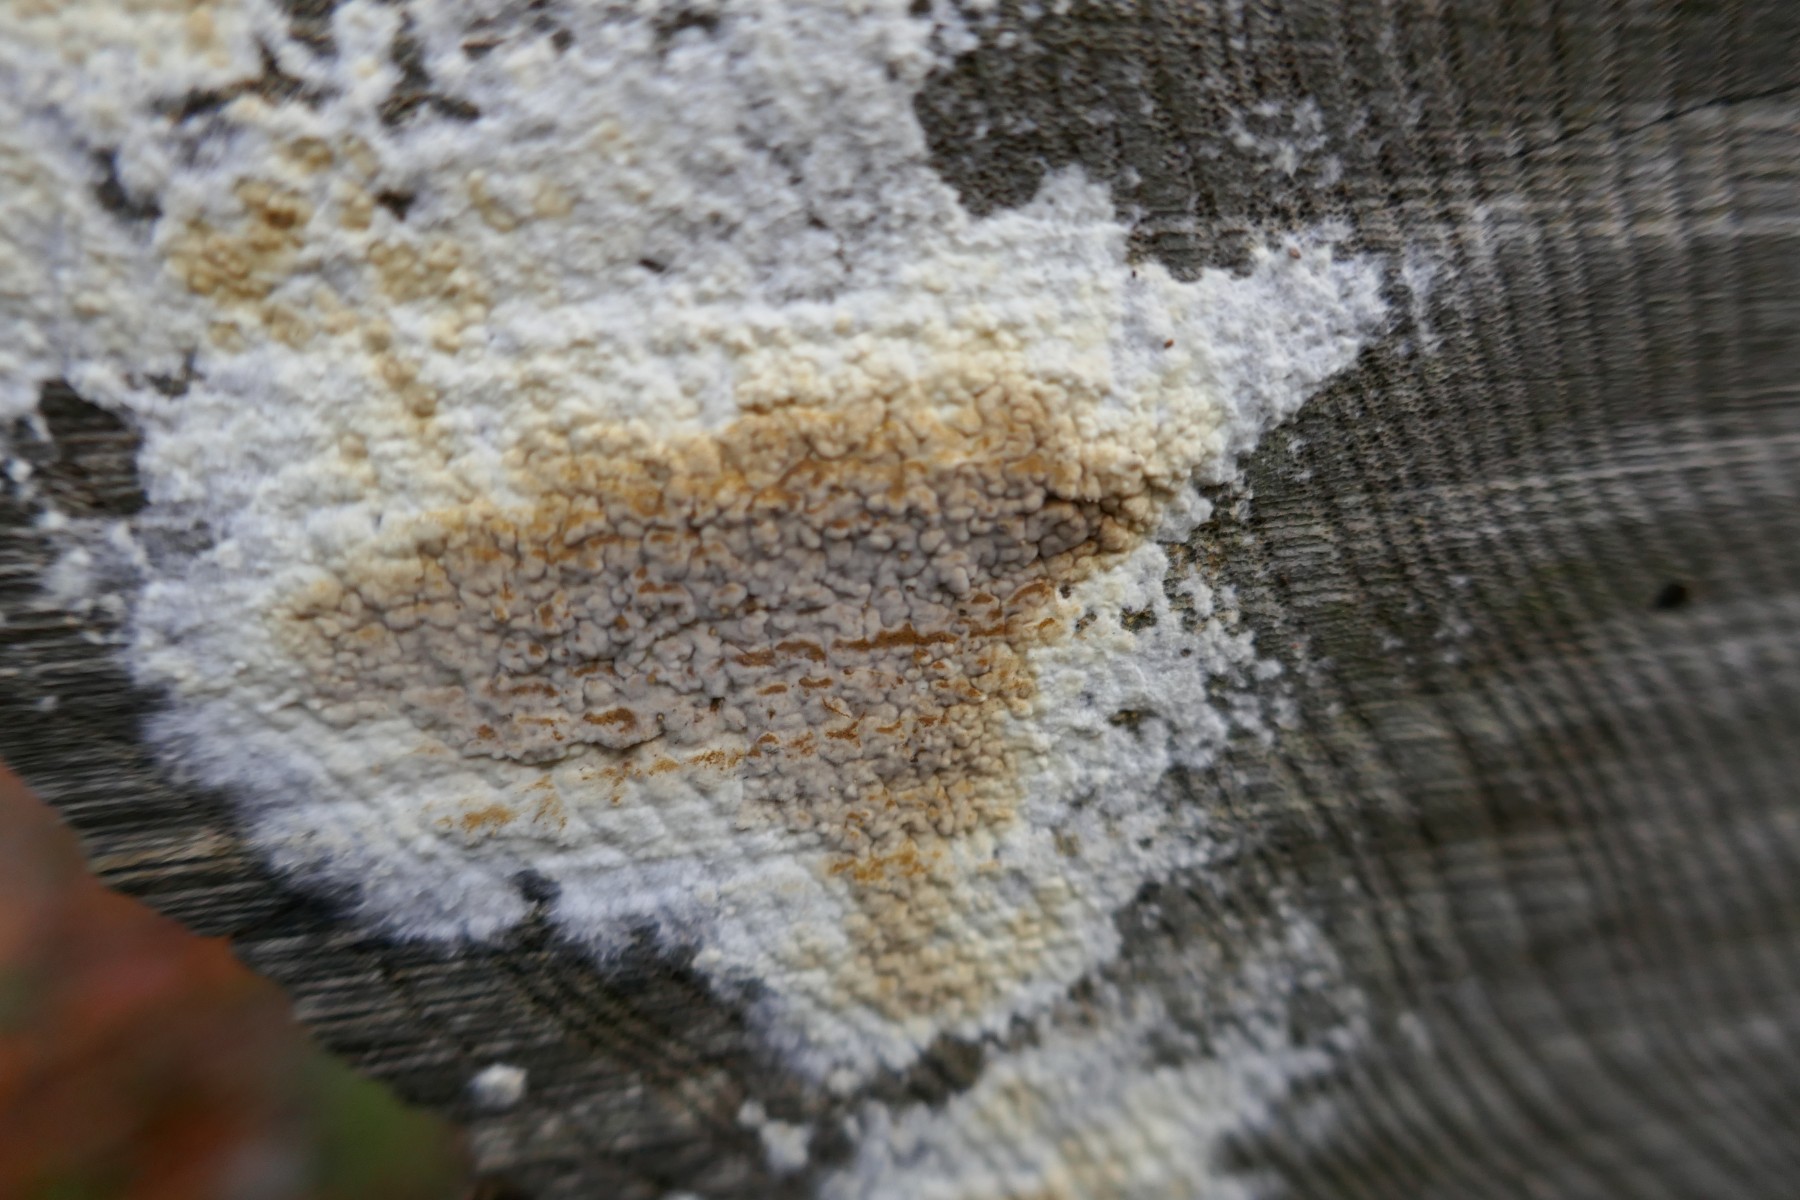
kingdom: Fungi
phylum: Basidiomycota
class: Agaricomycetes
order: Boletales
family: Coniophoraceae
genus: Coniophora
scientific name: Coniophora puteana
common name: gul tømmersvamp
